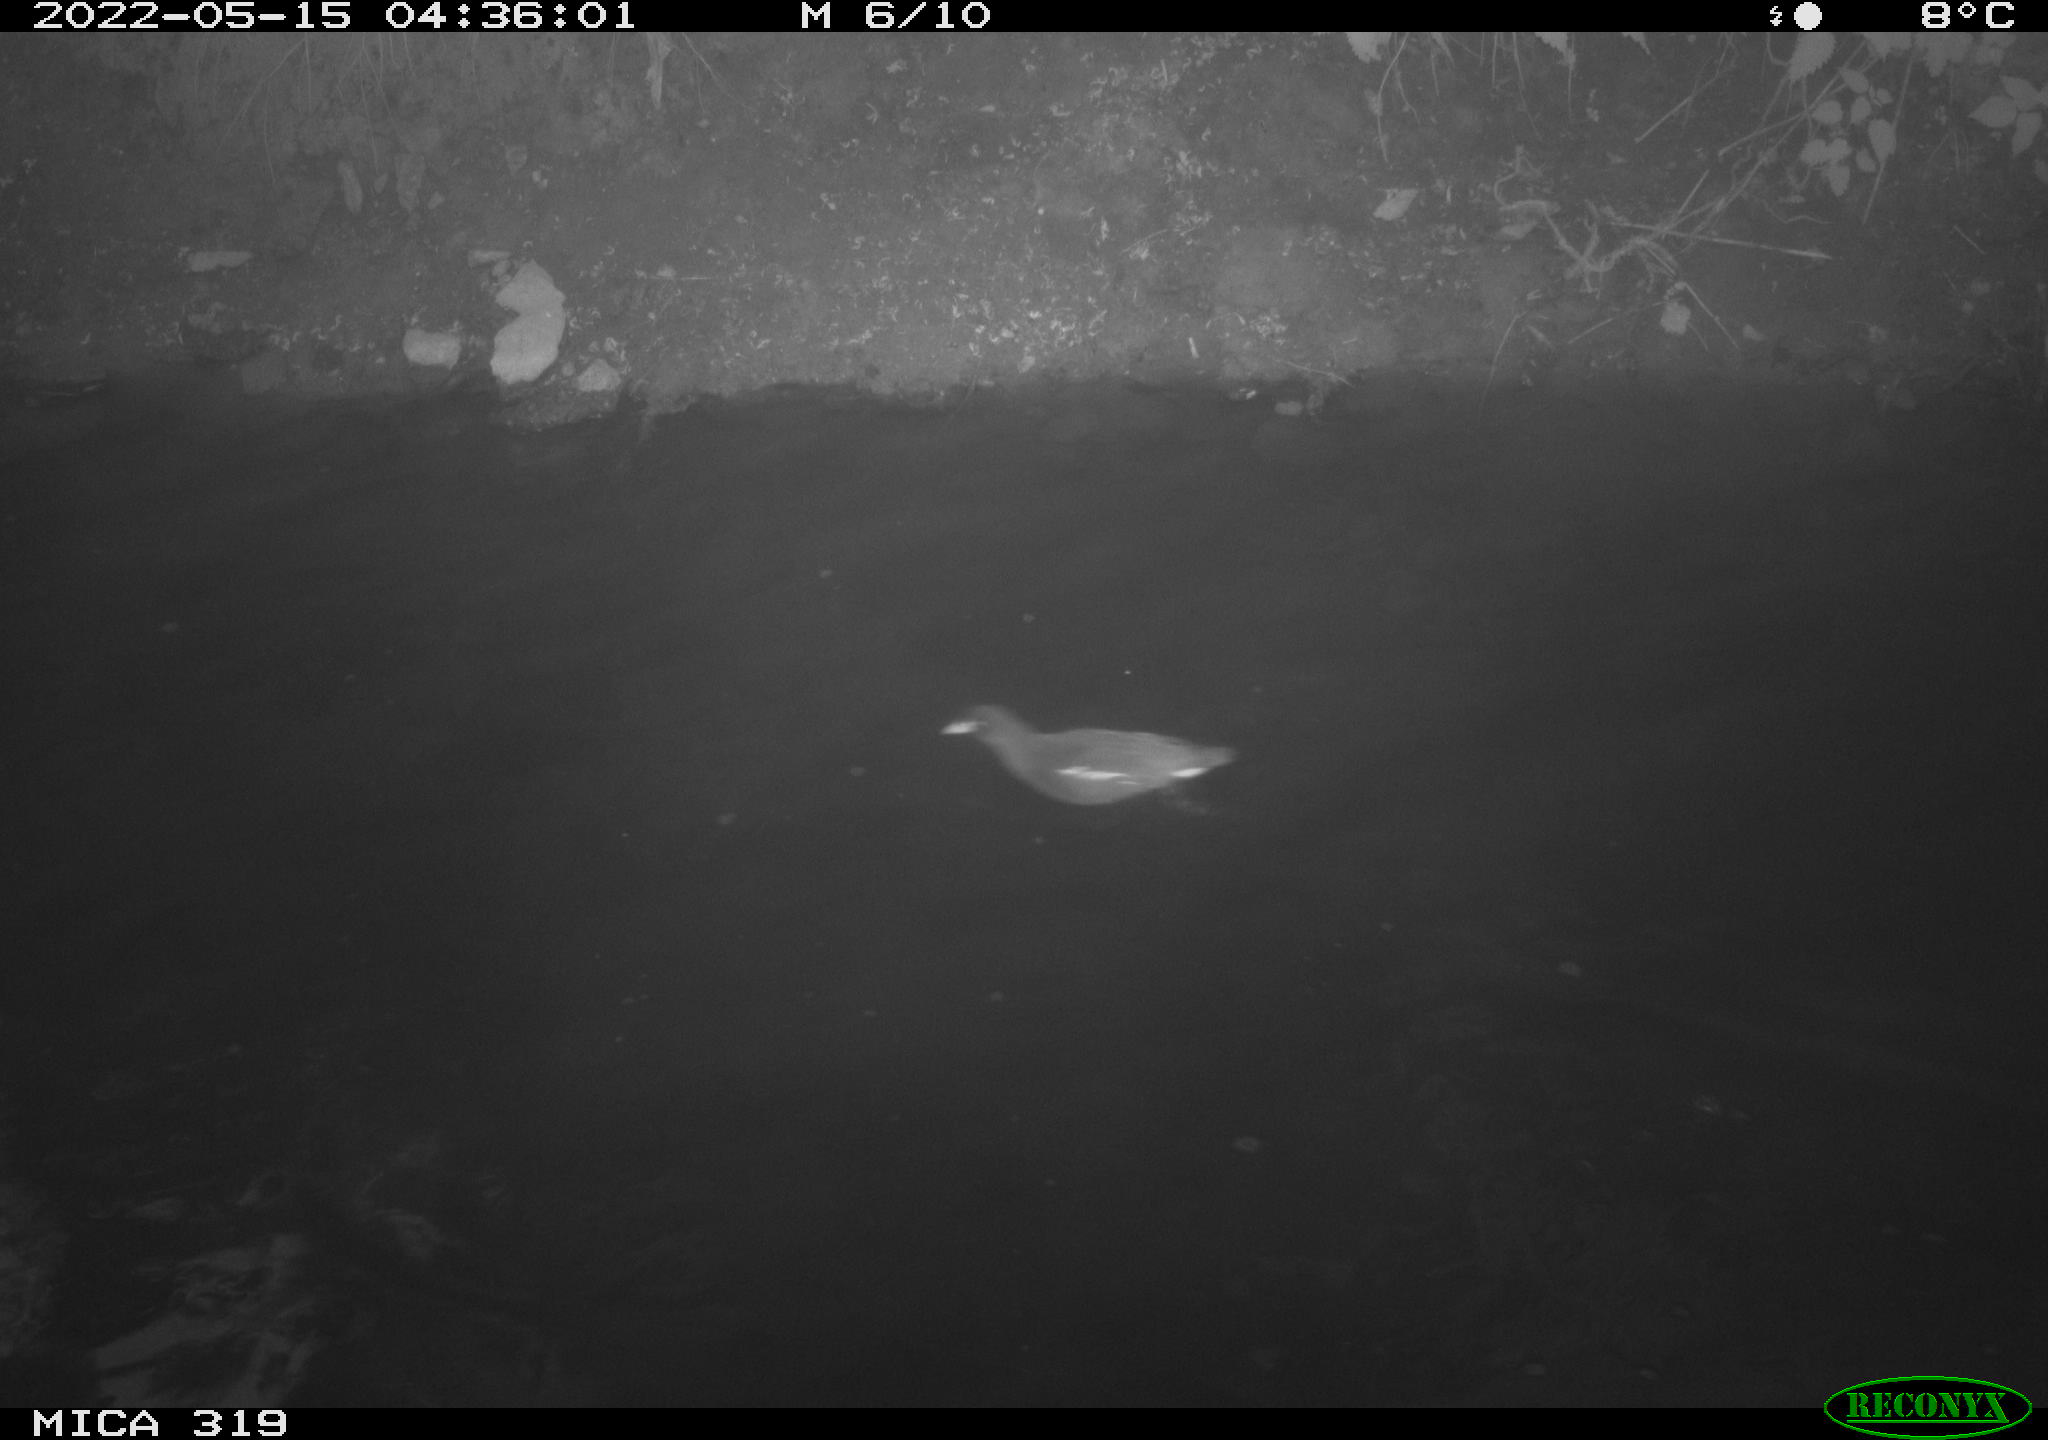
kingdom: Animalia
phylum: Chordata
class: Aves
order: Anseriformes
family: Anatidae
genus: Anas
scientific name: Anas
